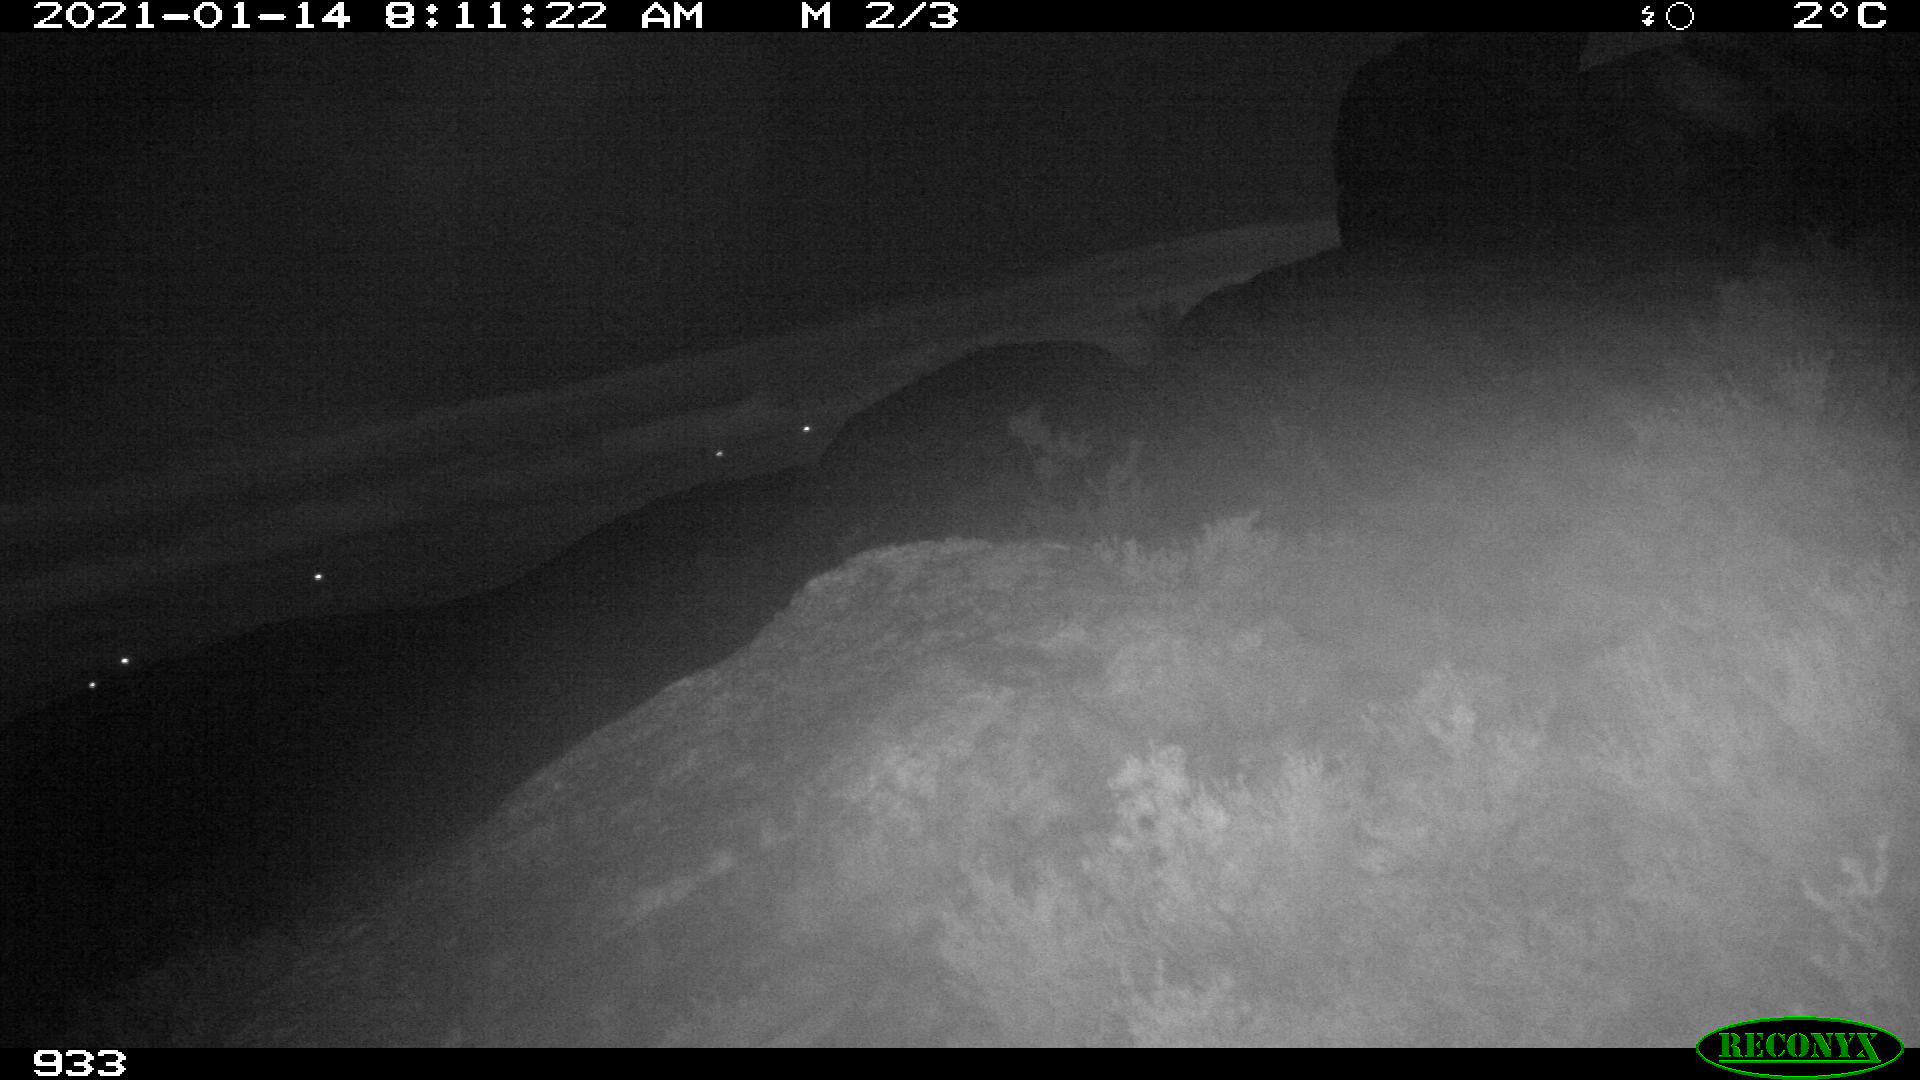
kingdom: Animalia
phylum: Chordata
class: Mammalia
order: Artiodactyla
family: Suidae
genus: Sus
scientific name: Sus scrofa
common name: Wild boar
